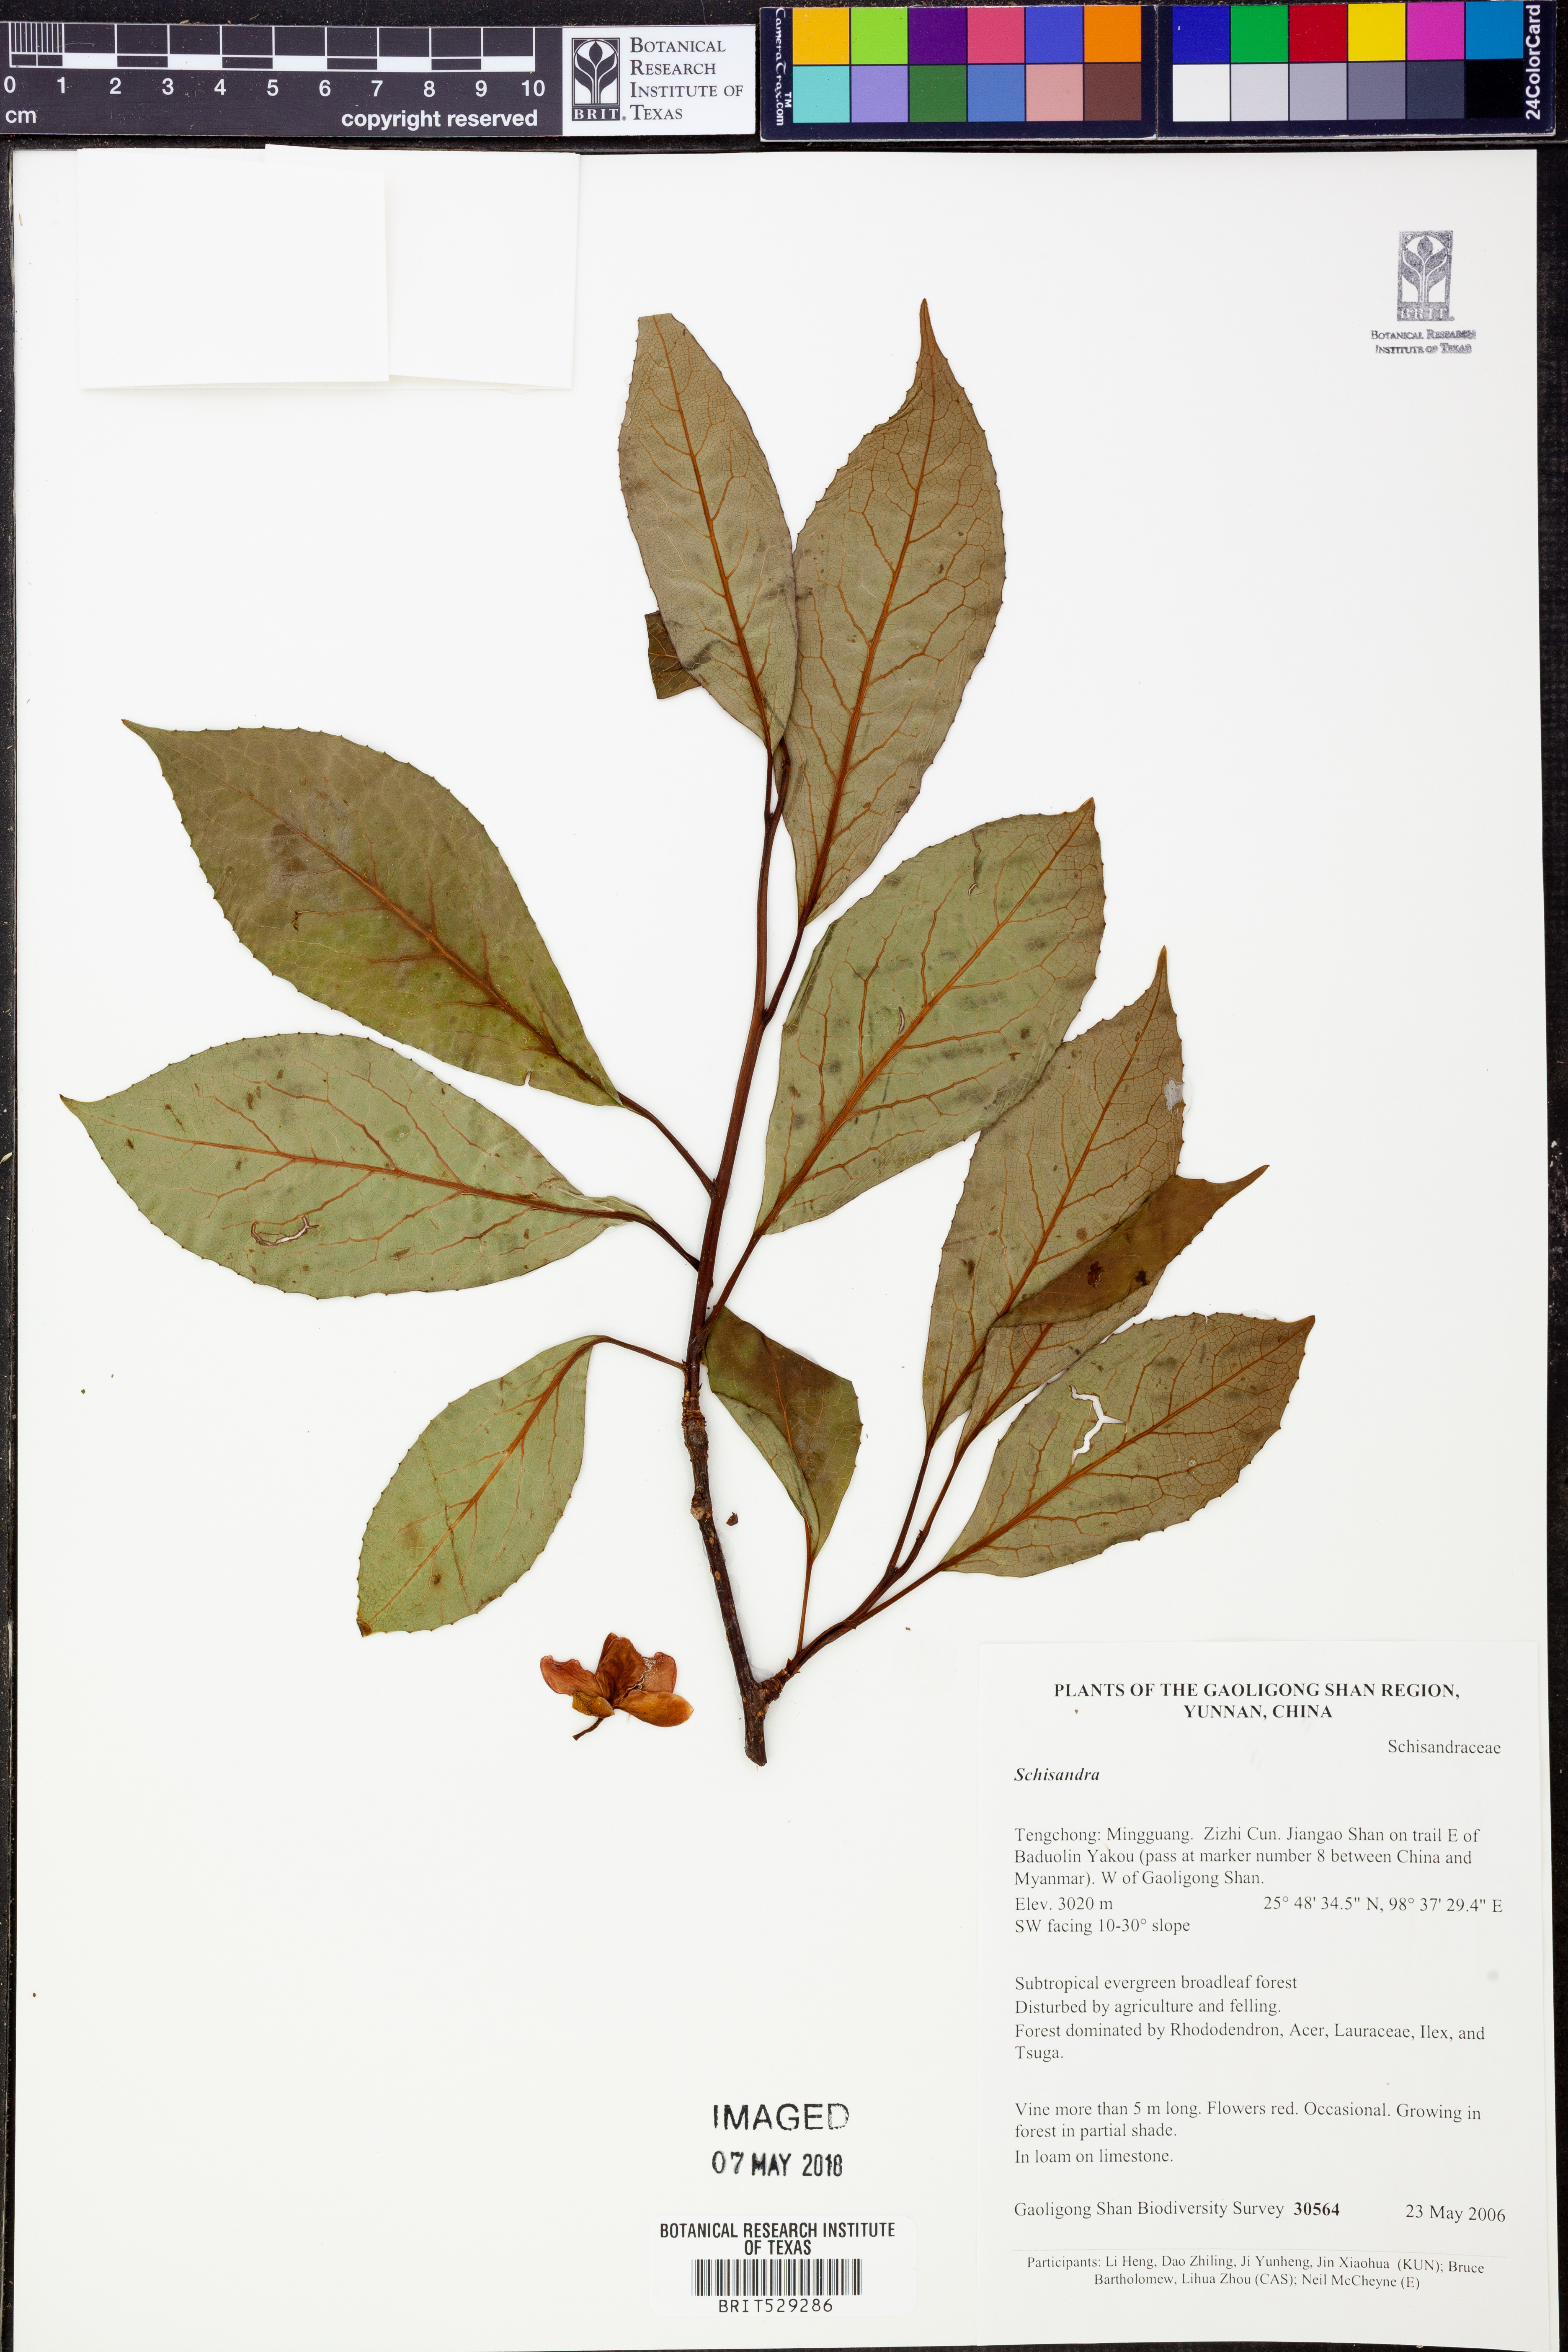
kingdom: Plantae
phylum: Tracheophyta
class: Magnoliopsida
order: Austrobaileyales
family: Schisandraceae
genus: Schisandra
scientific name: Schisandra
